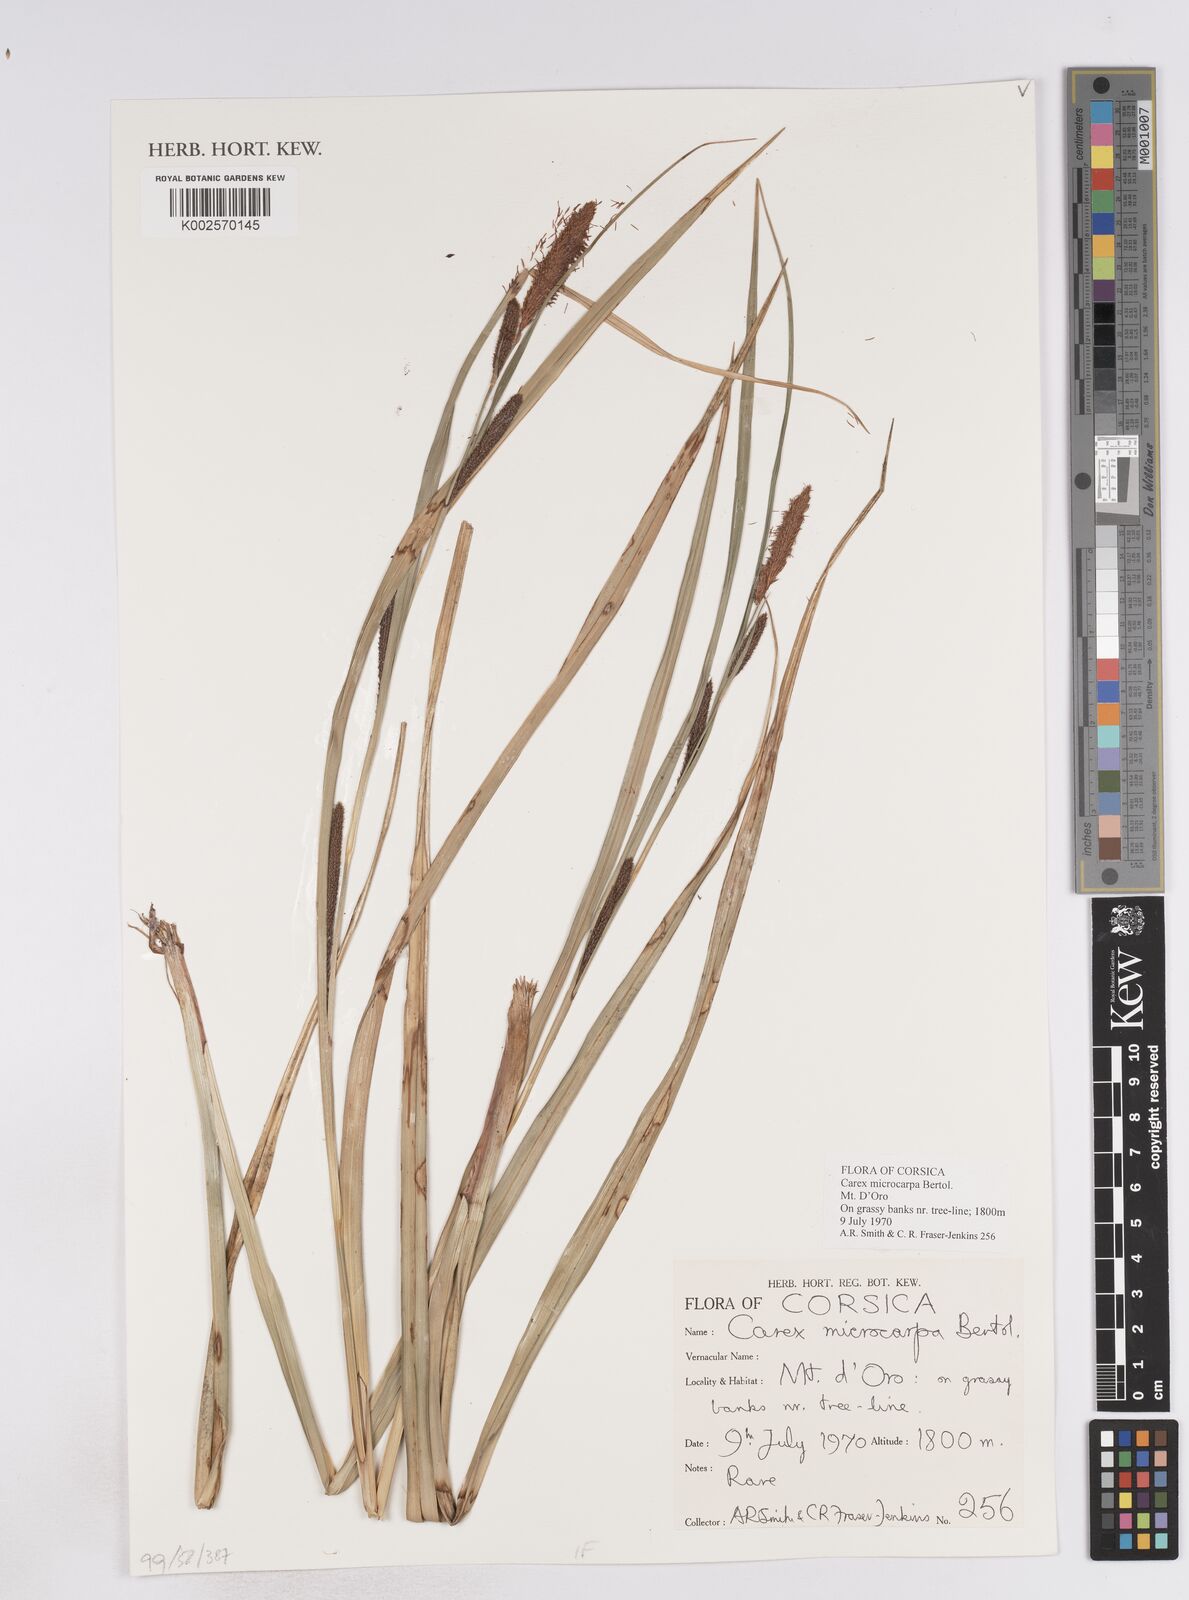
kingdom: Plantae
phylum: Tracheophyta
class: Liliopsida
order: Poales
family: Cyperaceae
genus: Carex
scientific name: Carex microcarpa
